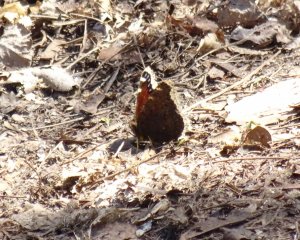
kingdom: Animalia
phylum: Arthropoda
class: Insecta
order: Lepidoptera
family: Nymphalidae
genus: Nymphalis
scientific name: Nymphalis antiopa
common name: Mourning Cloak
